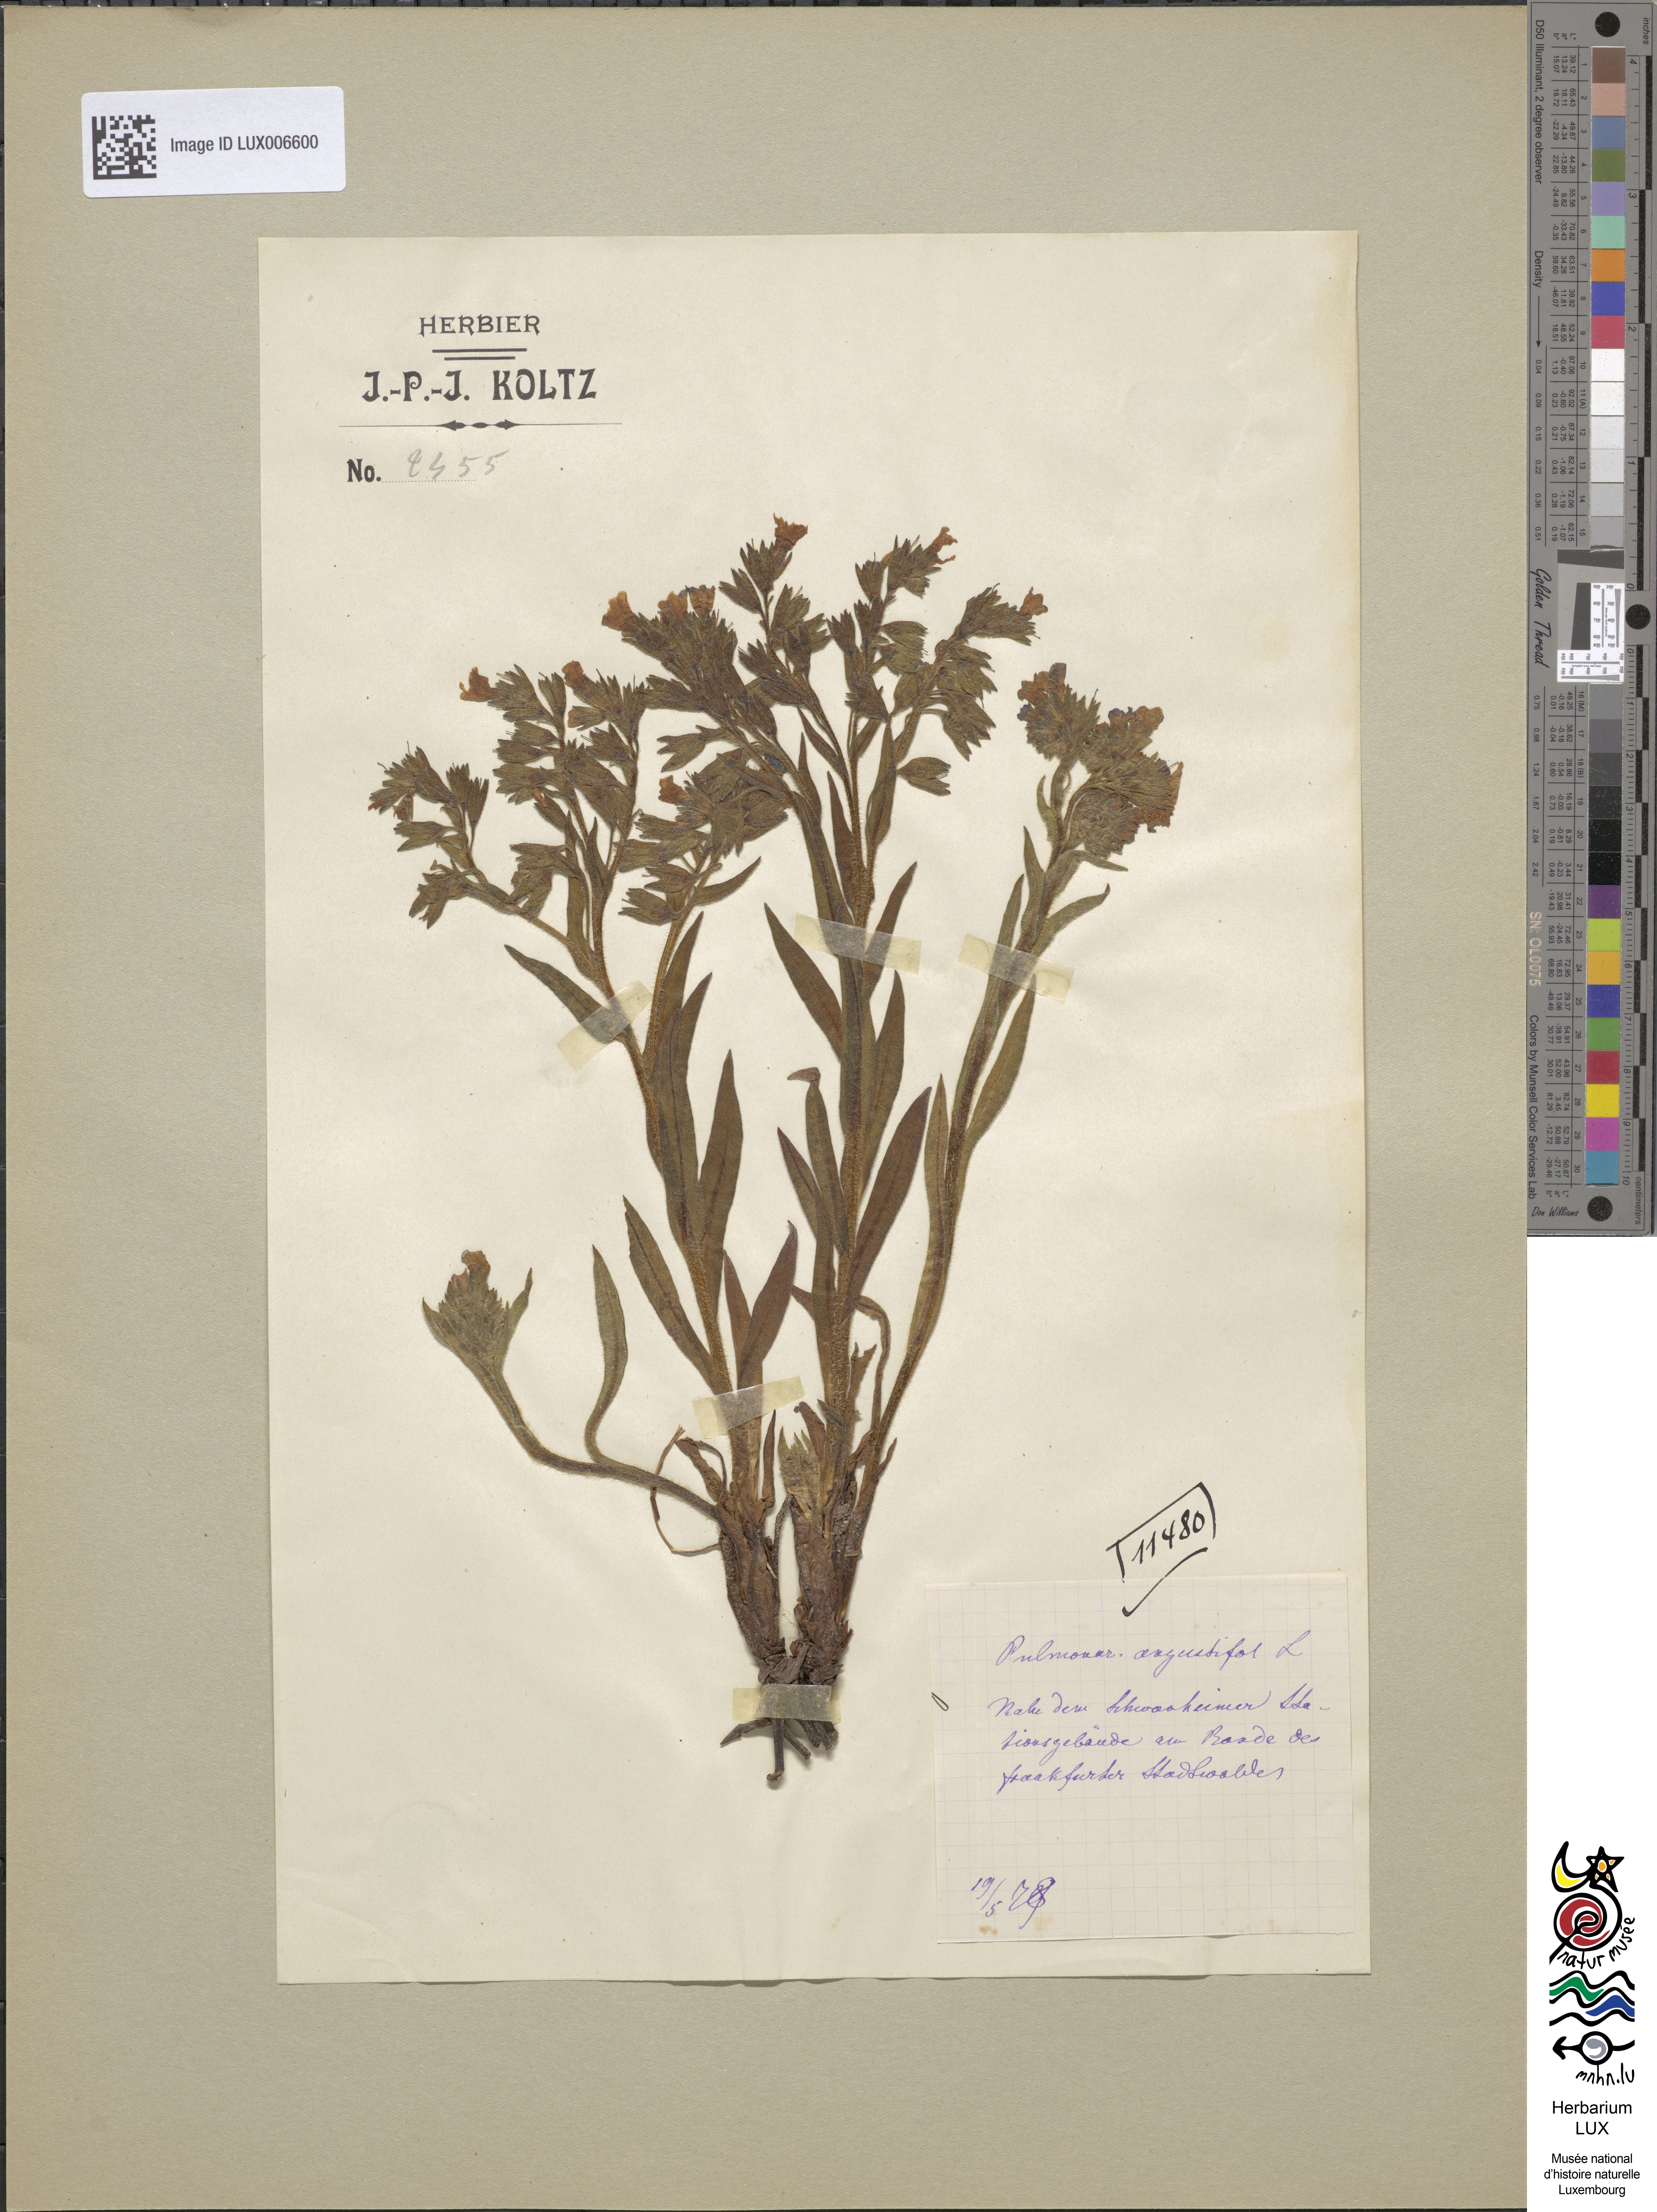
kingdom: Plantae
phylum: Tracheophyta
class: Magnoliopsida
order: Boraginales
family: Boraginaceae
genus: Pulmonaria
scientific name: Pulmonaria angustifolia
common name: Blue cowslip
